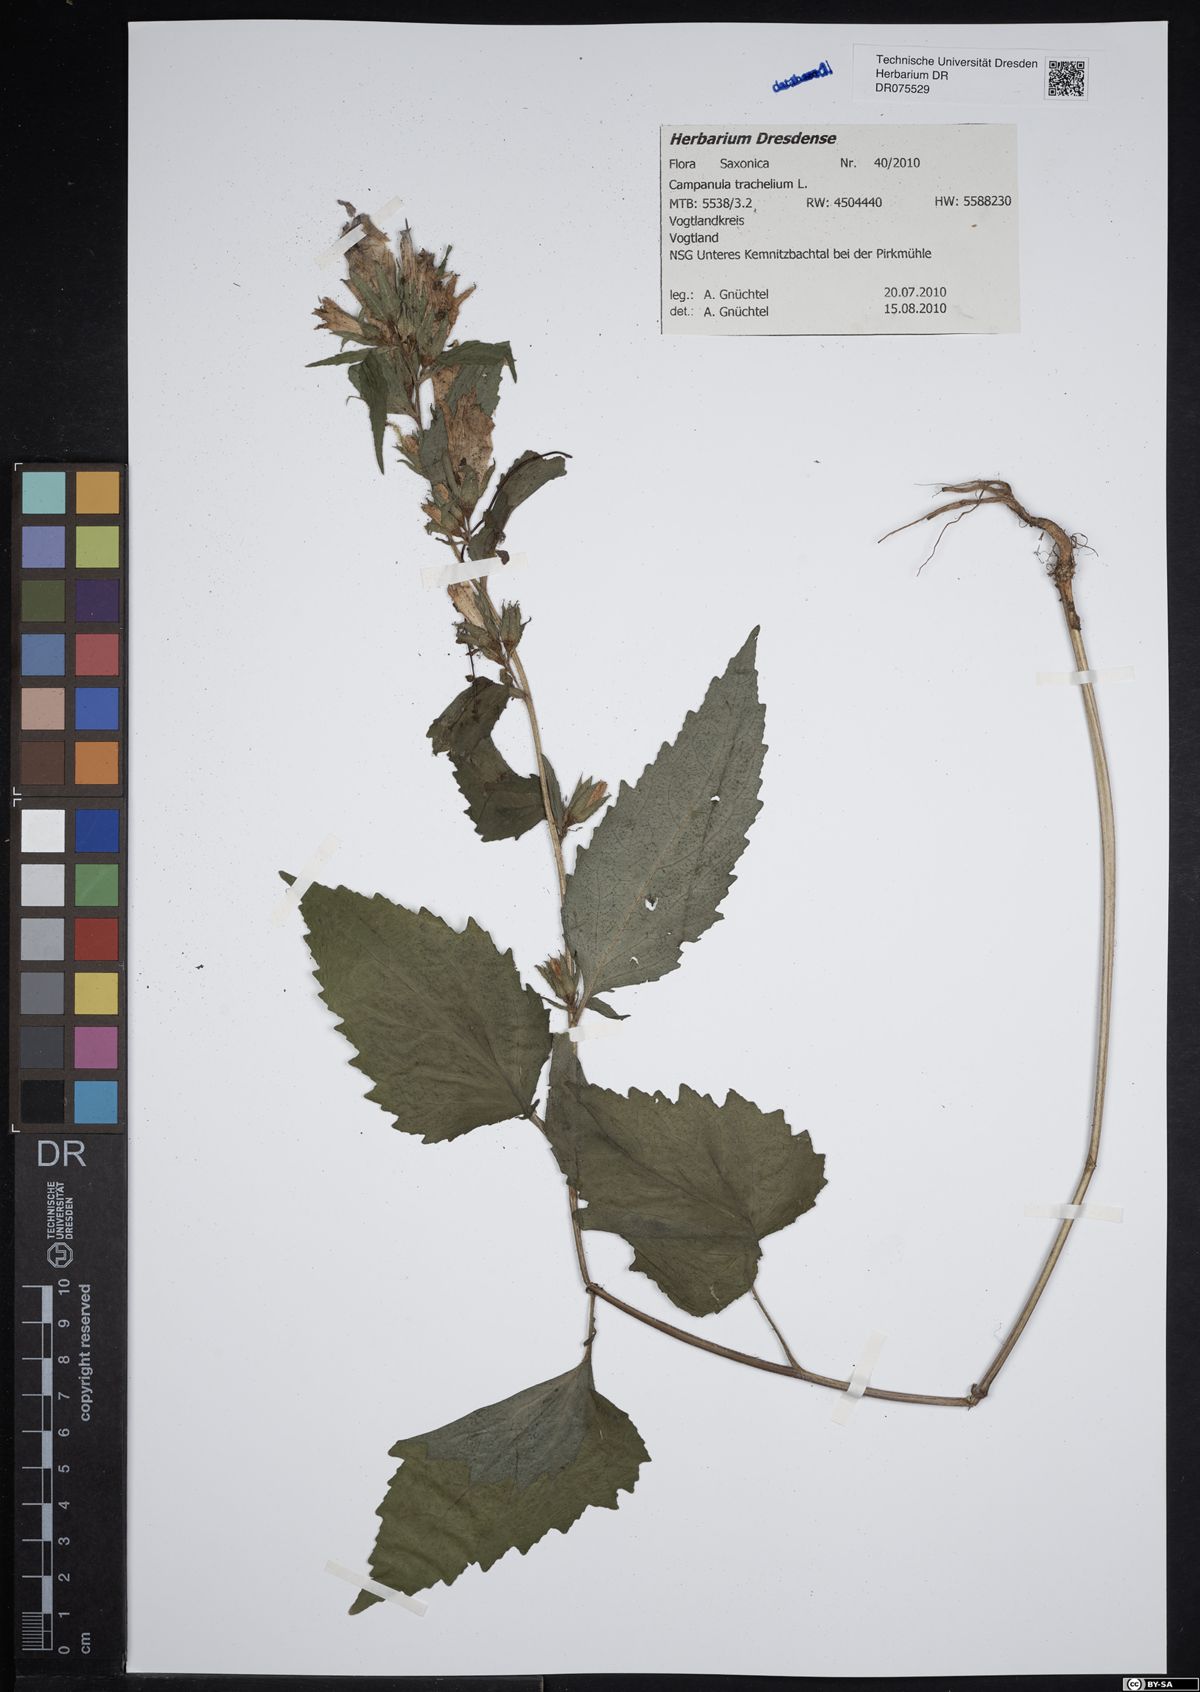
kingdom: Plantae
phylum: Tracheophyta
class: Magnoliopsida
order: Asterales
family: Campanulaceae
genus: Campanula
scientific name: Campanula trachelium
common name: Nettle-leaved bellflower
